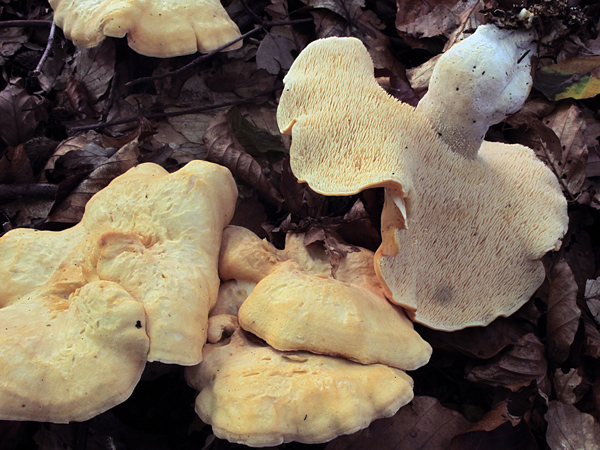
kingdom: Fungi
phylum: Basidiomycota
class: Agaricomycetes
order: Cantharellales
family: Hydnaceae
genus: Hydnum
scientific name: Hydnum slovenicum
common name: slovensk pigsvamp
